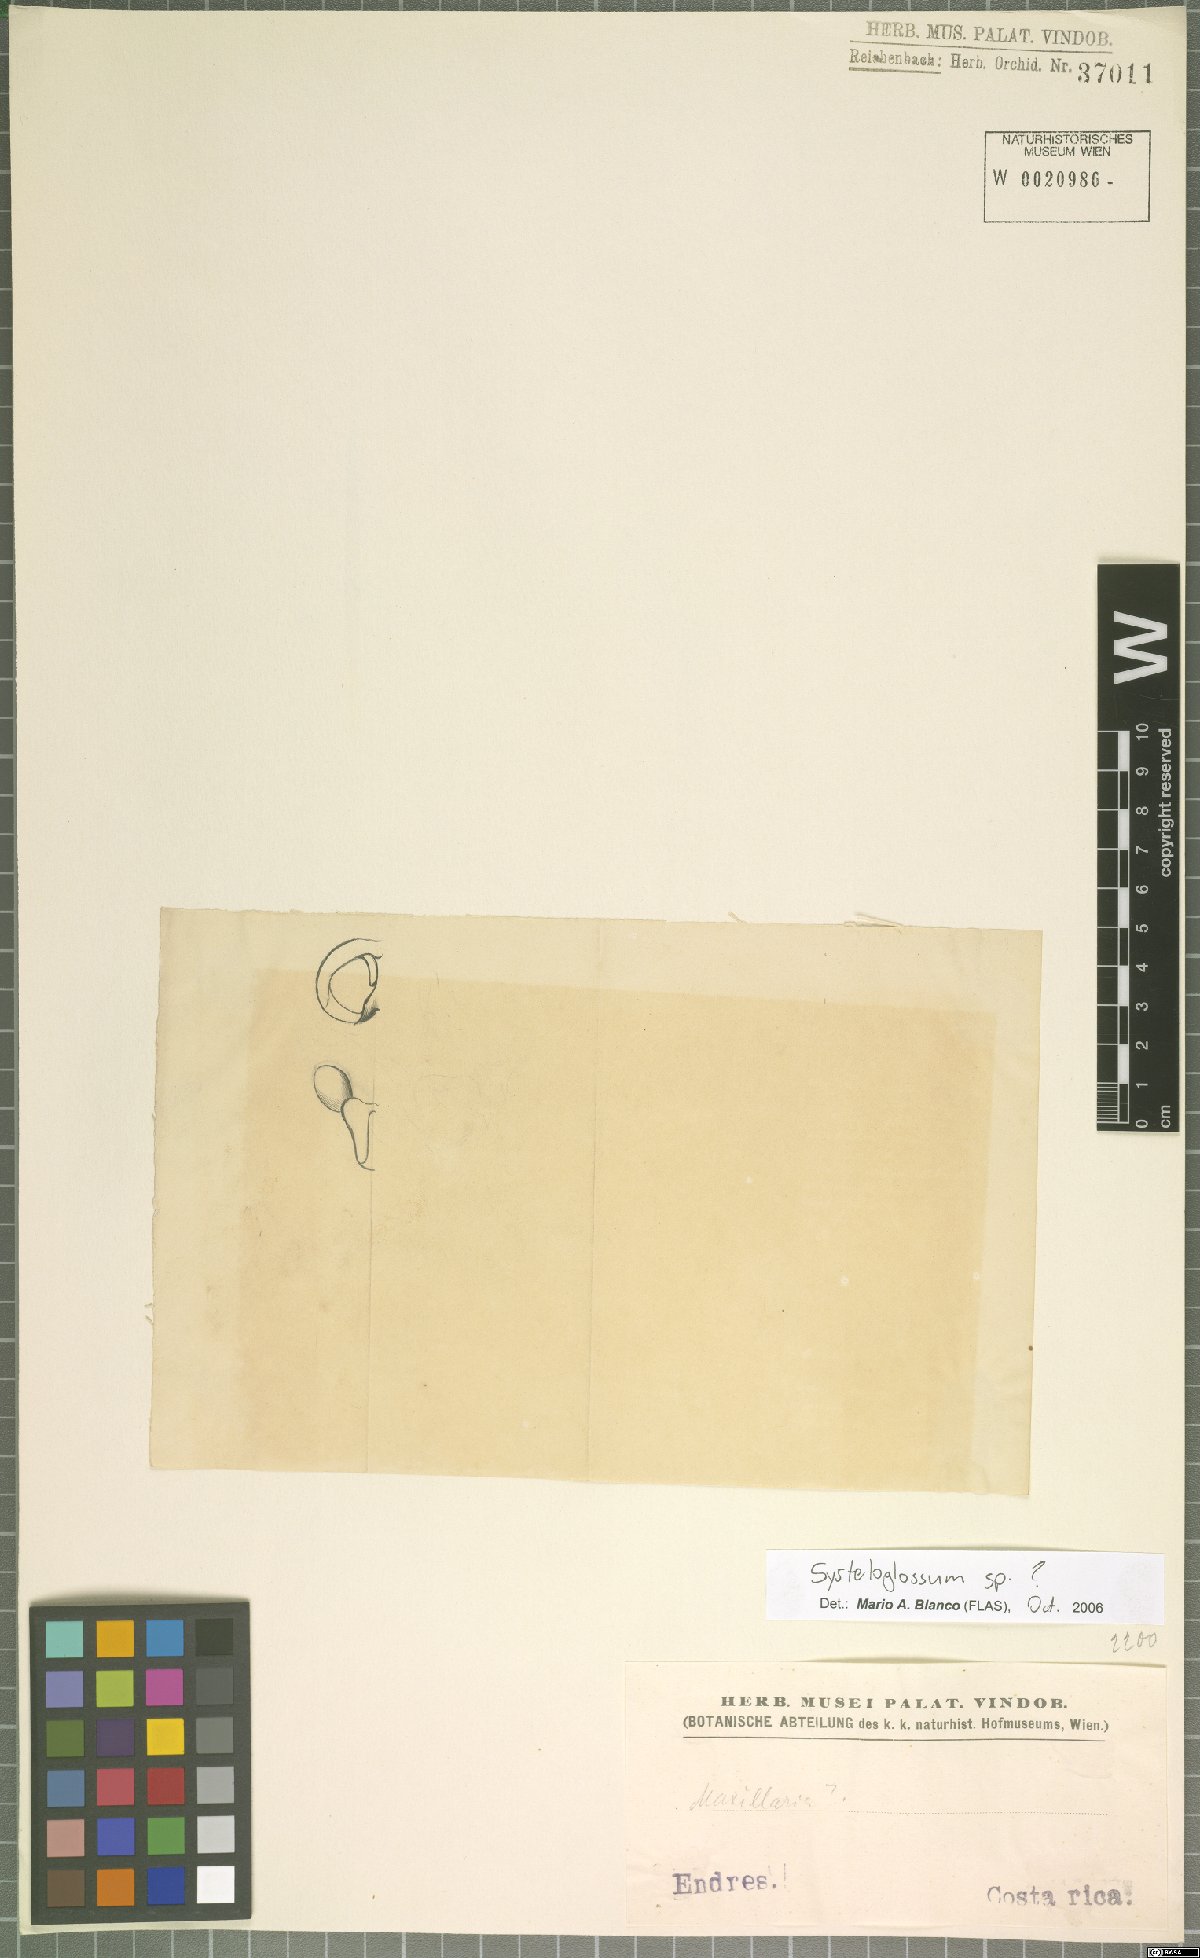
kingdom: Plantae
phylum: Tracheophyta
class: Liliopsida
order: Asparagales
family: Orchidaceae
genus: Systeloglossum
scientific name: Systeloglossum
